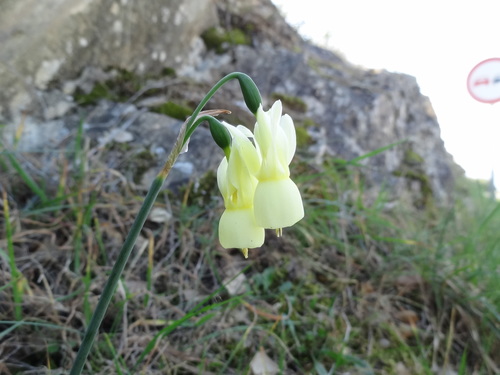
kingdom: Plantae
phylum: Tracheophyta
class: Liliopsida
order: Asparagales
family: Amaryllidaceae
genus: Narcissus
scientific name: Narcissus triandrus
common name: Angel's-tears
